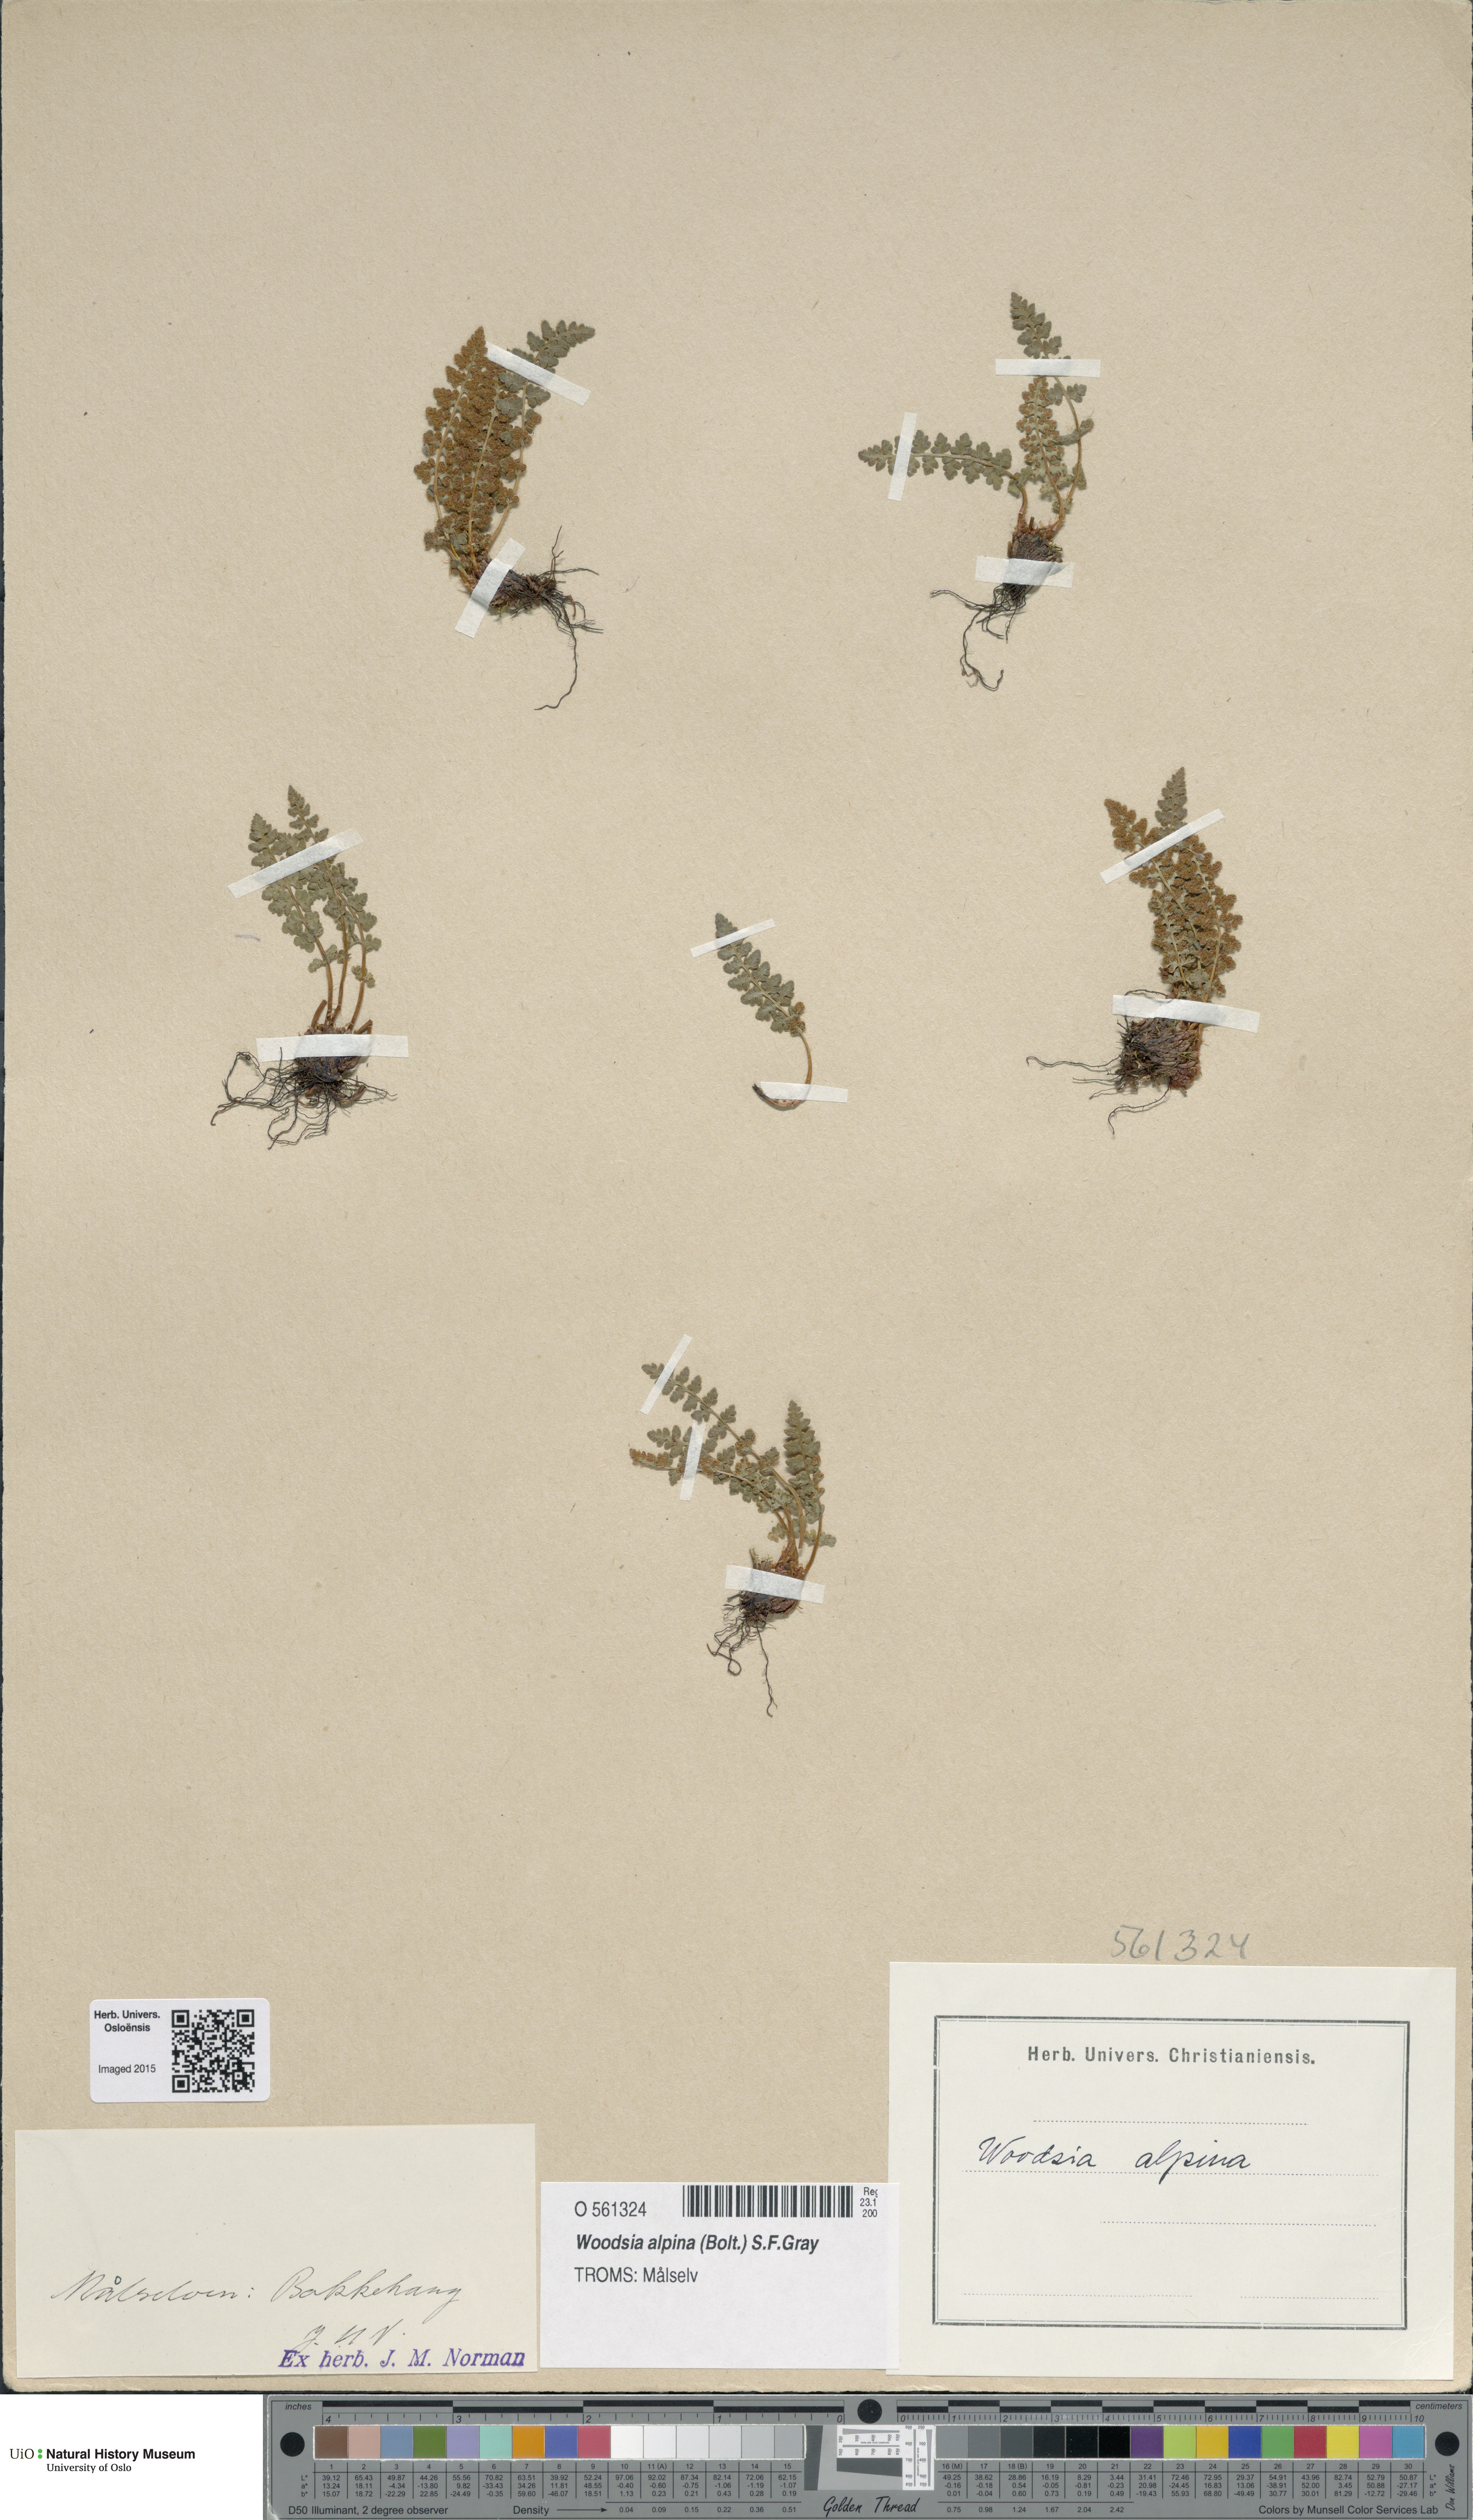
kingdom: Plantae
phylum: Tracheophyta
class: Polypodiopsida
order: Polypodiales
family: Woodsiaceae
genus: Woodsia
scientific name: Woodsia alpina
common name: Alpine woodsia
